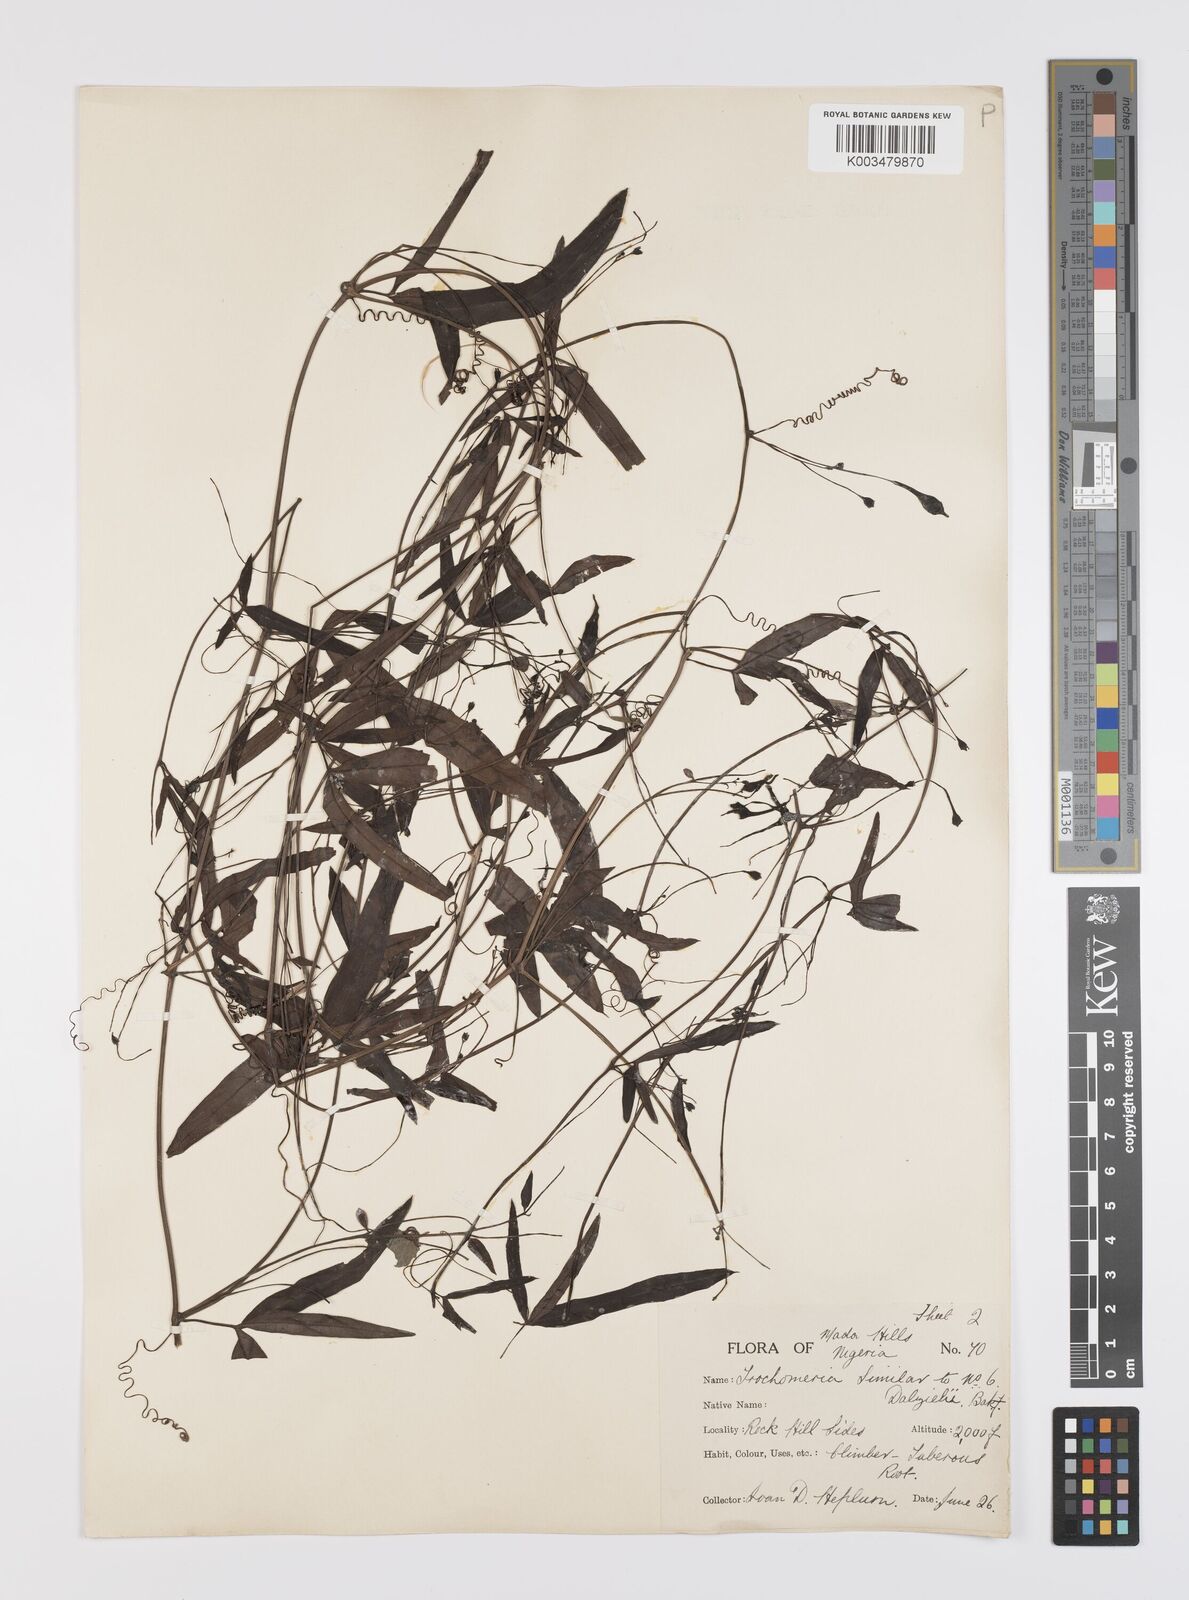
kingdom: Plantae
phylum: Tracheophyta
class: Magnoliopsida
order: Cucurbitales
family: Cucurbitaceae
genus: Trochomeria
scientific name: Trochomeria macrocarpa
